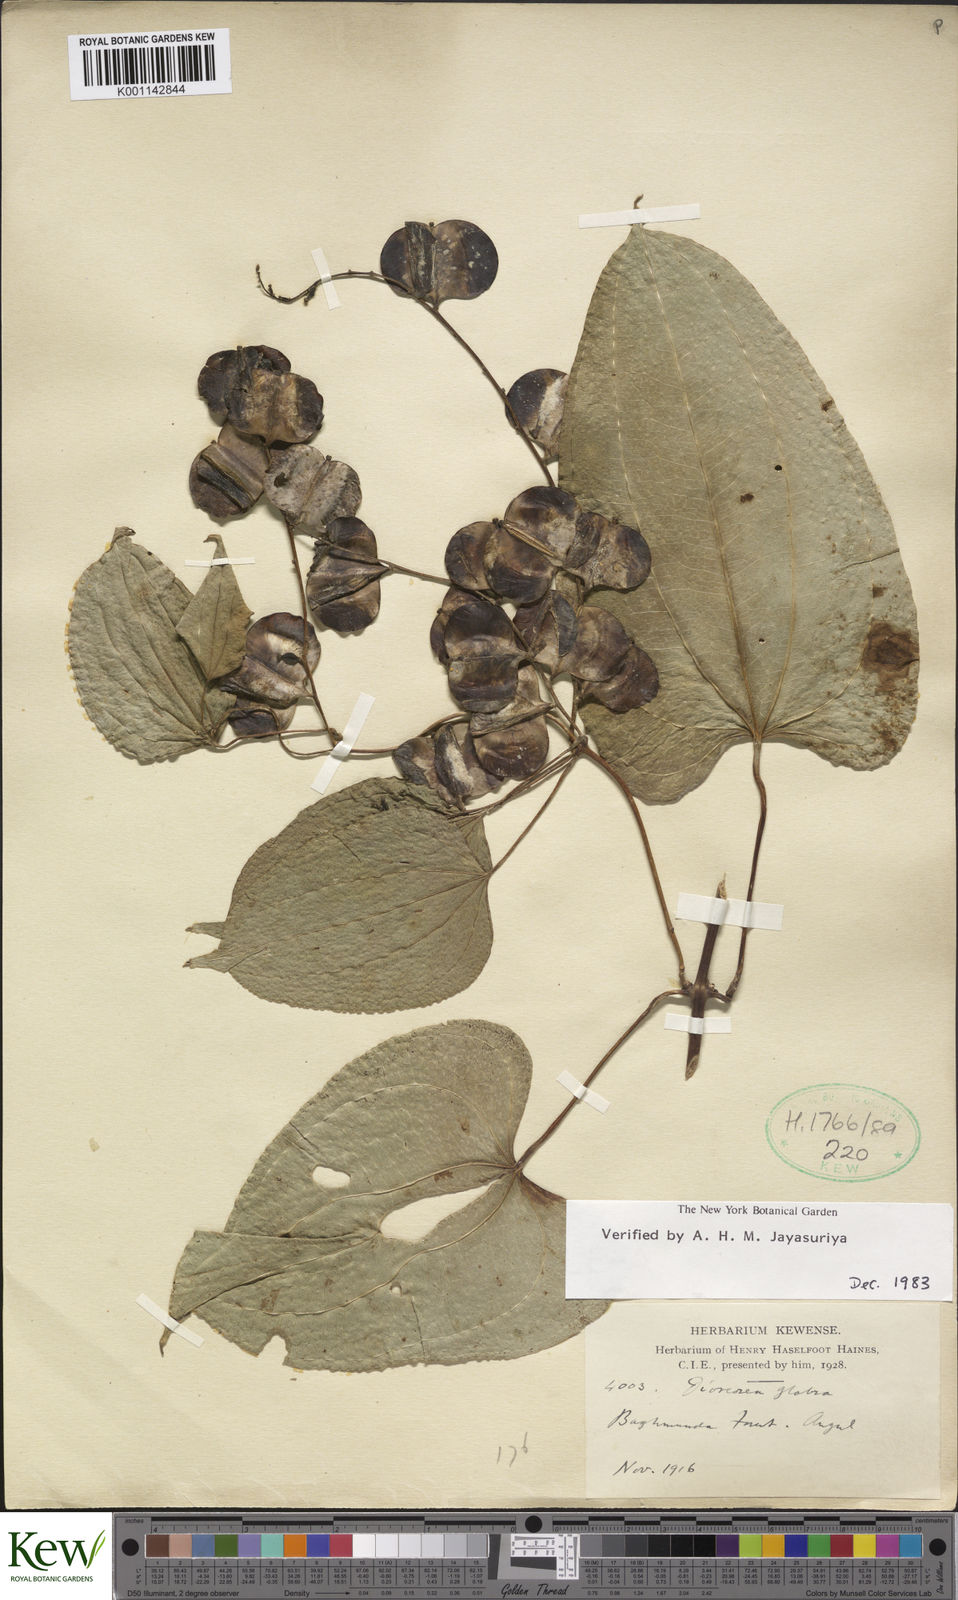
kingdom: Plantae
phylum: Tracheophyta
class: Liliopsida
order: Dioscoreales
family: Dioscoreaceae
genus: Dioscorea
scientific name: Dioscorea glabra
